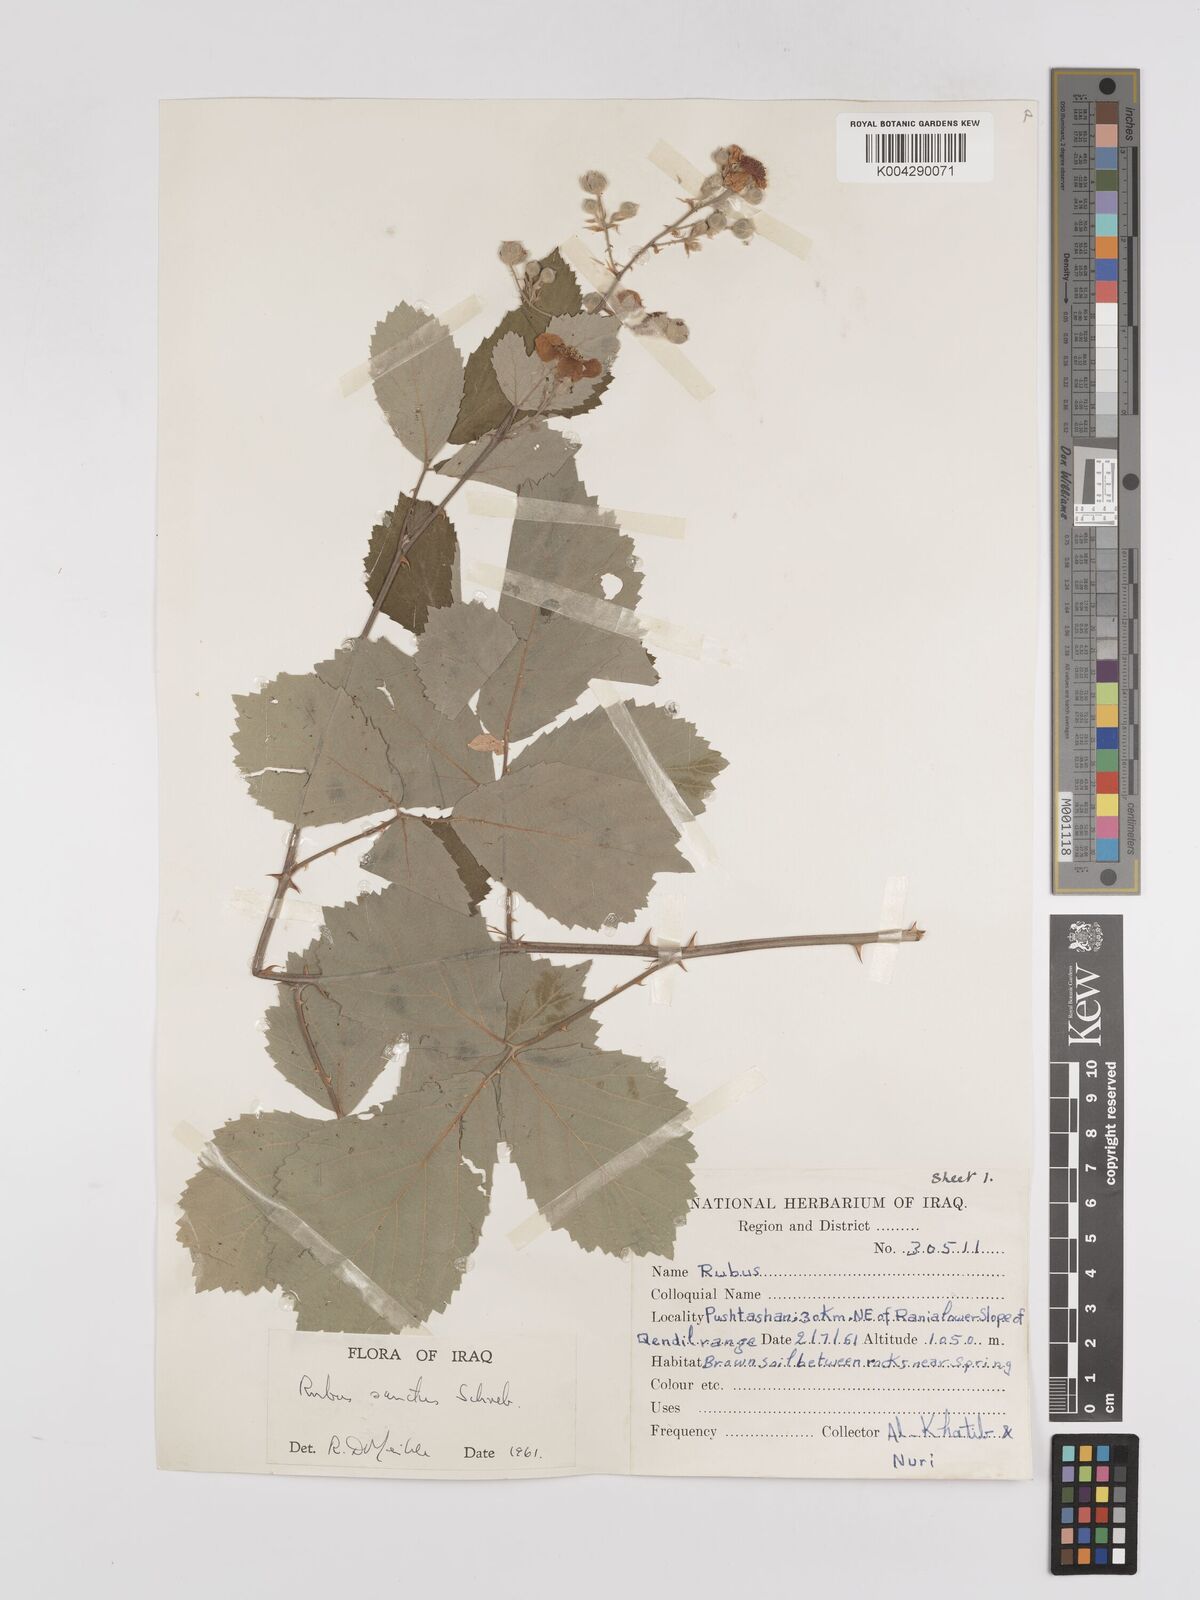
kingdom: Plantae
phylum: Tracheophyta
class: Magnoliopsida
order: Rosales
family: Rosaceae
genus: Rubus
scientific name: Rubus sanctus
